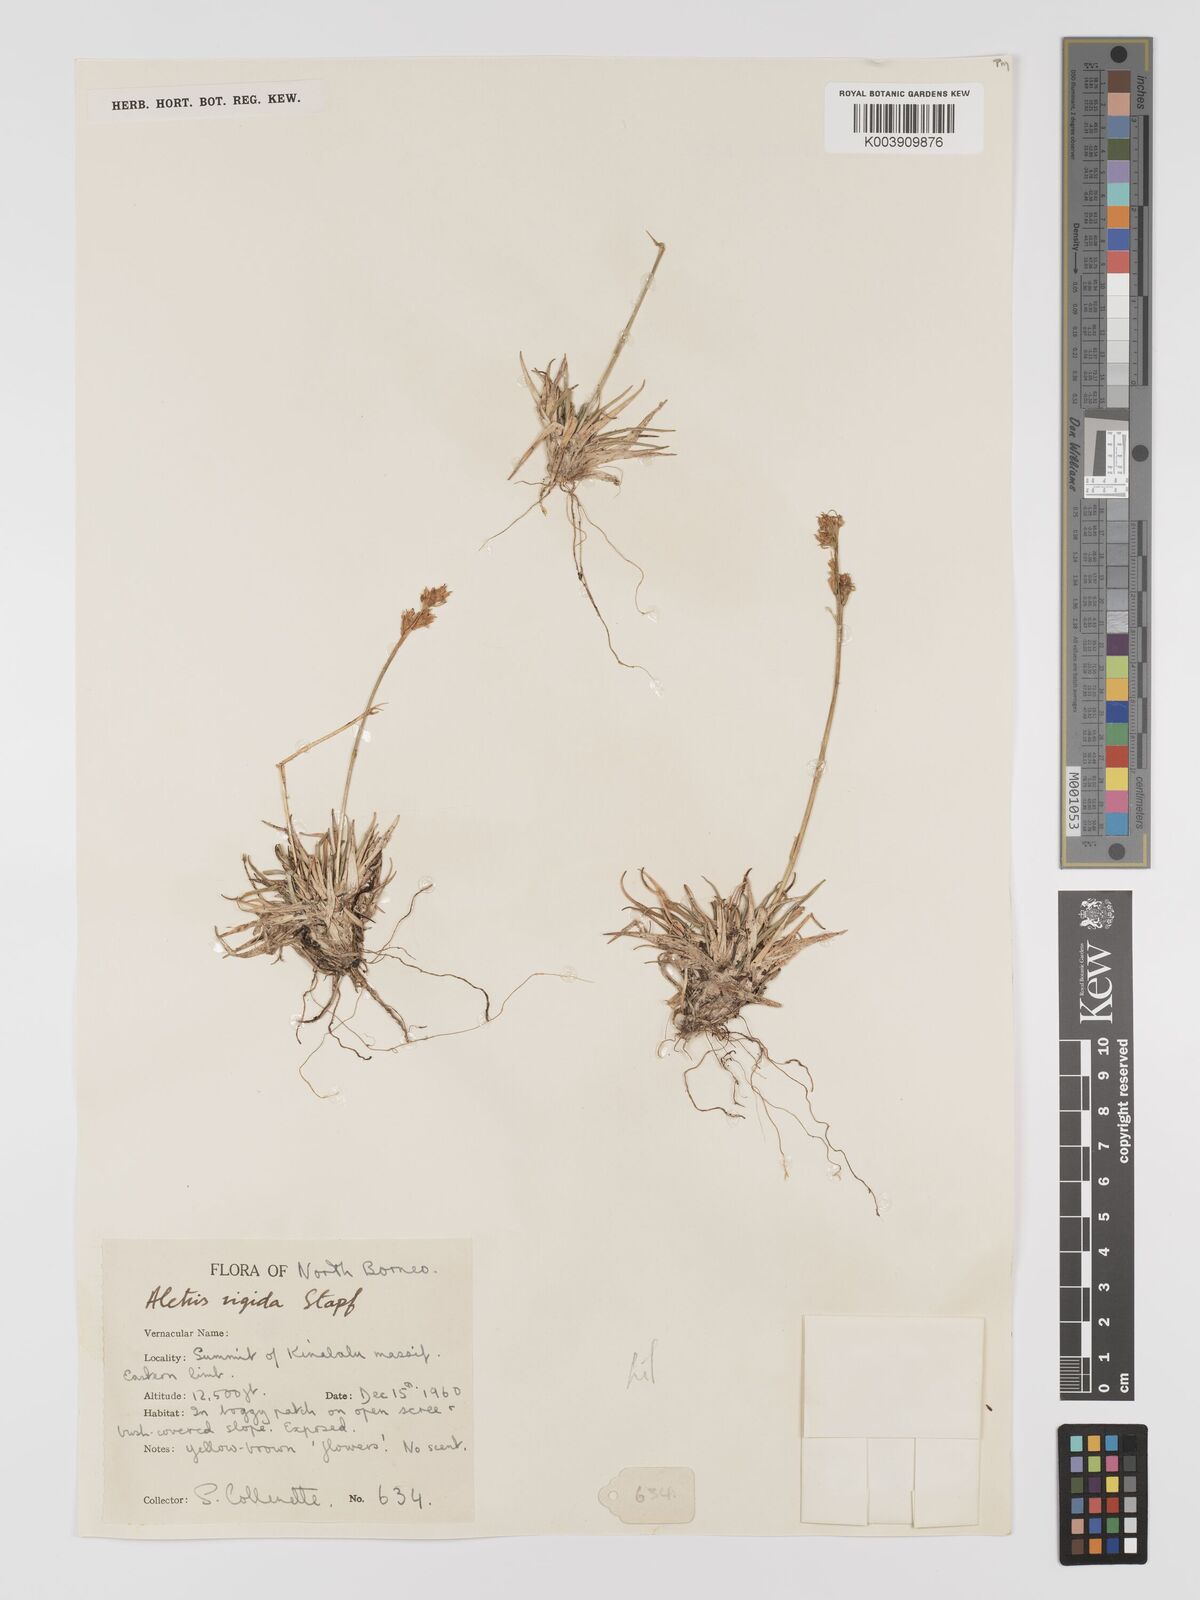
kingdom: Plantae
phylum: Tracheophyta
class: Liliopsida
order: Dioscoreales
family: Nartheciaceae
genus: Aletris
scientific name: Aletris foliolosa
